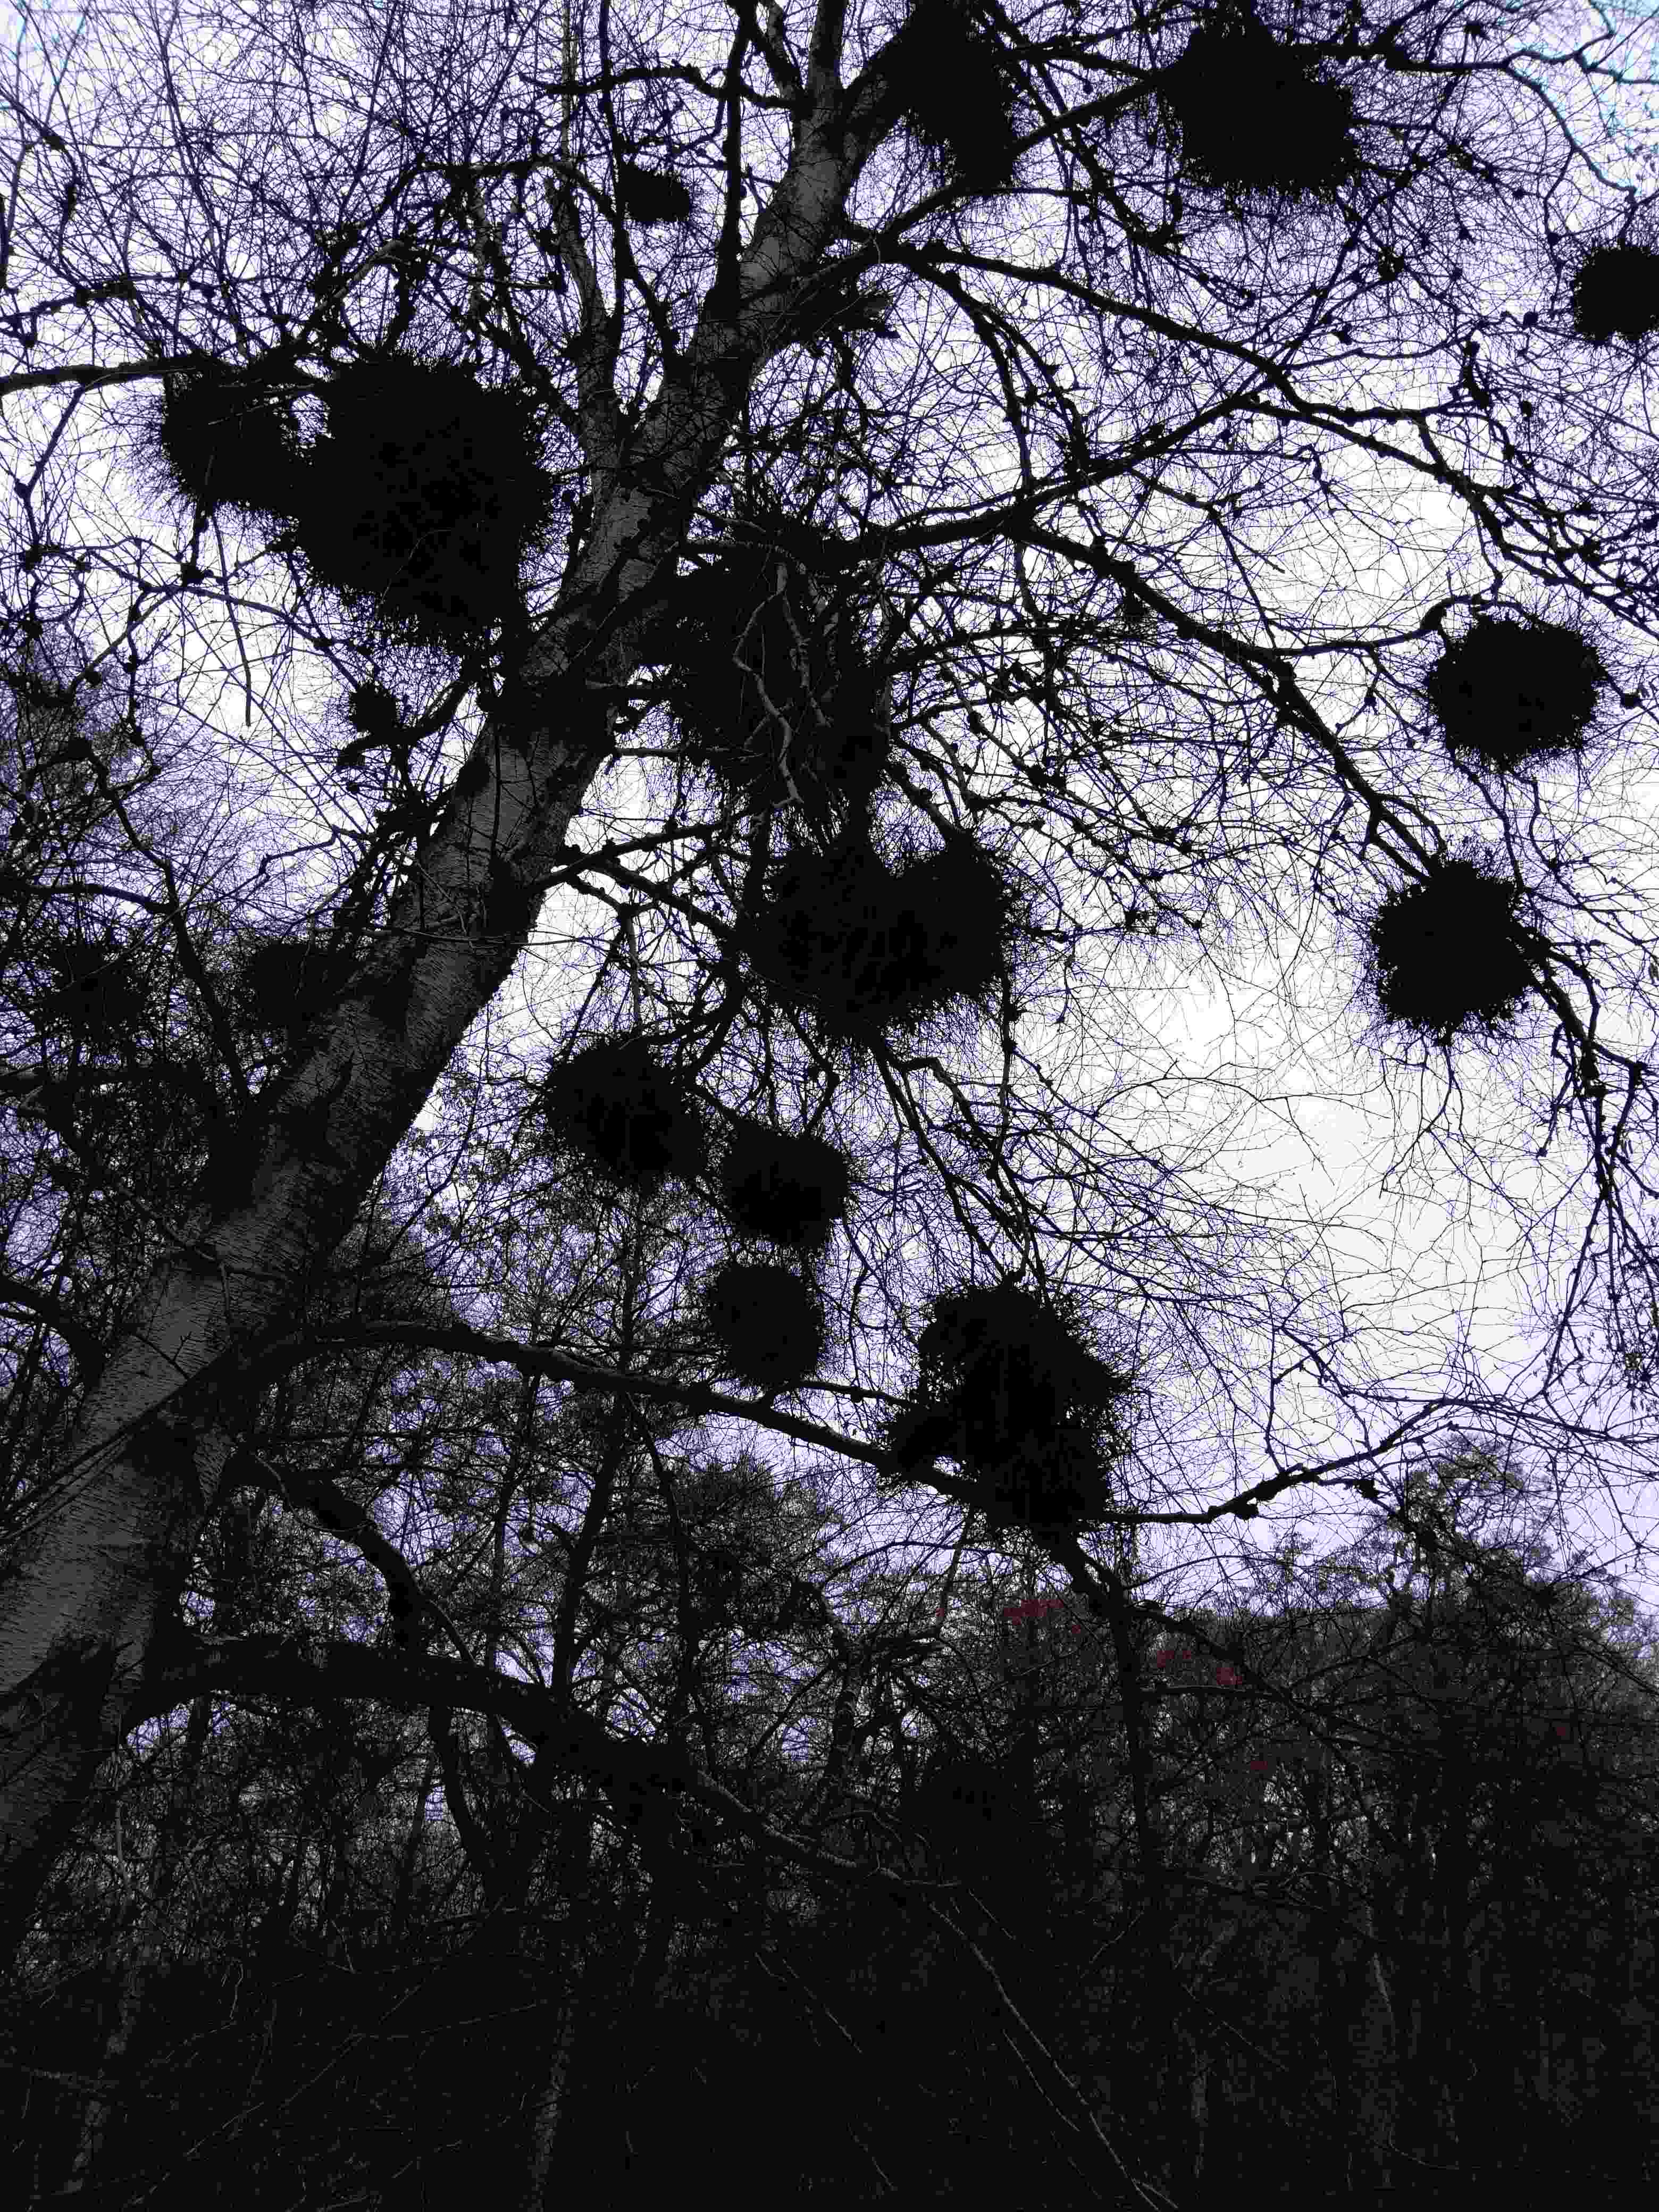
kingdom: Fungi
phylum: Ascomycota
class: Taphrinomycetes
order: Taphrinales
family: Taphrinaceae
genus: Taphrina
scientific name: Taphrina betulina
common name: hekse-sækdug
